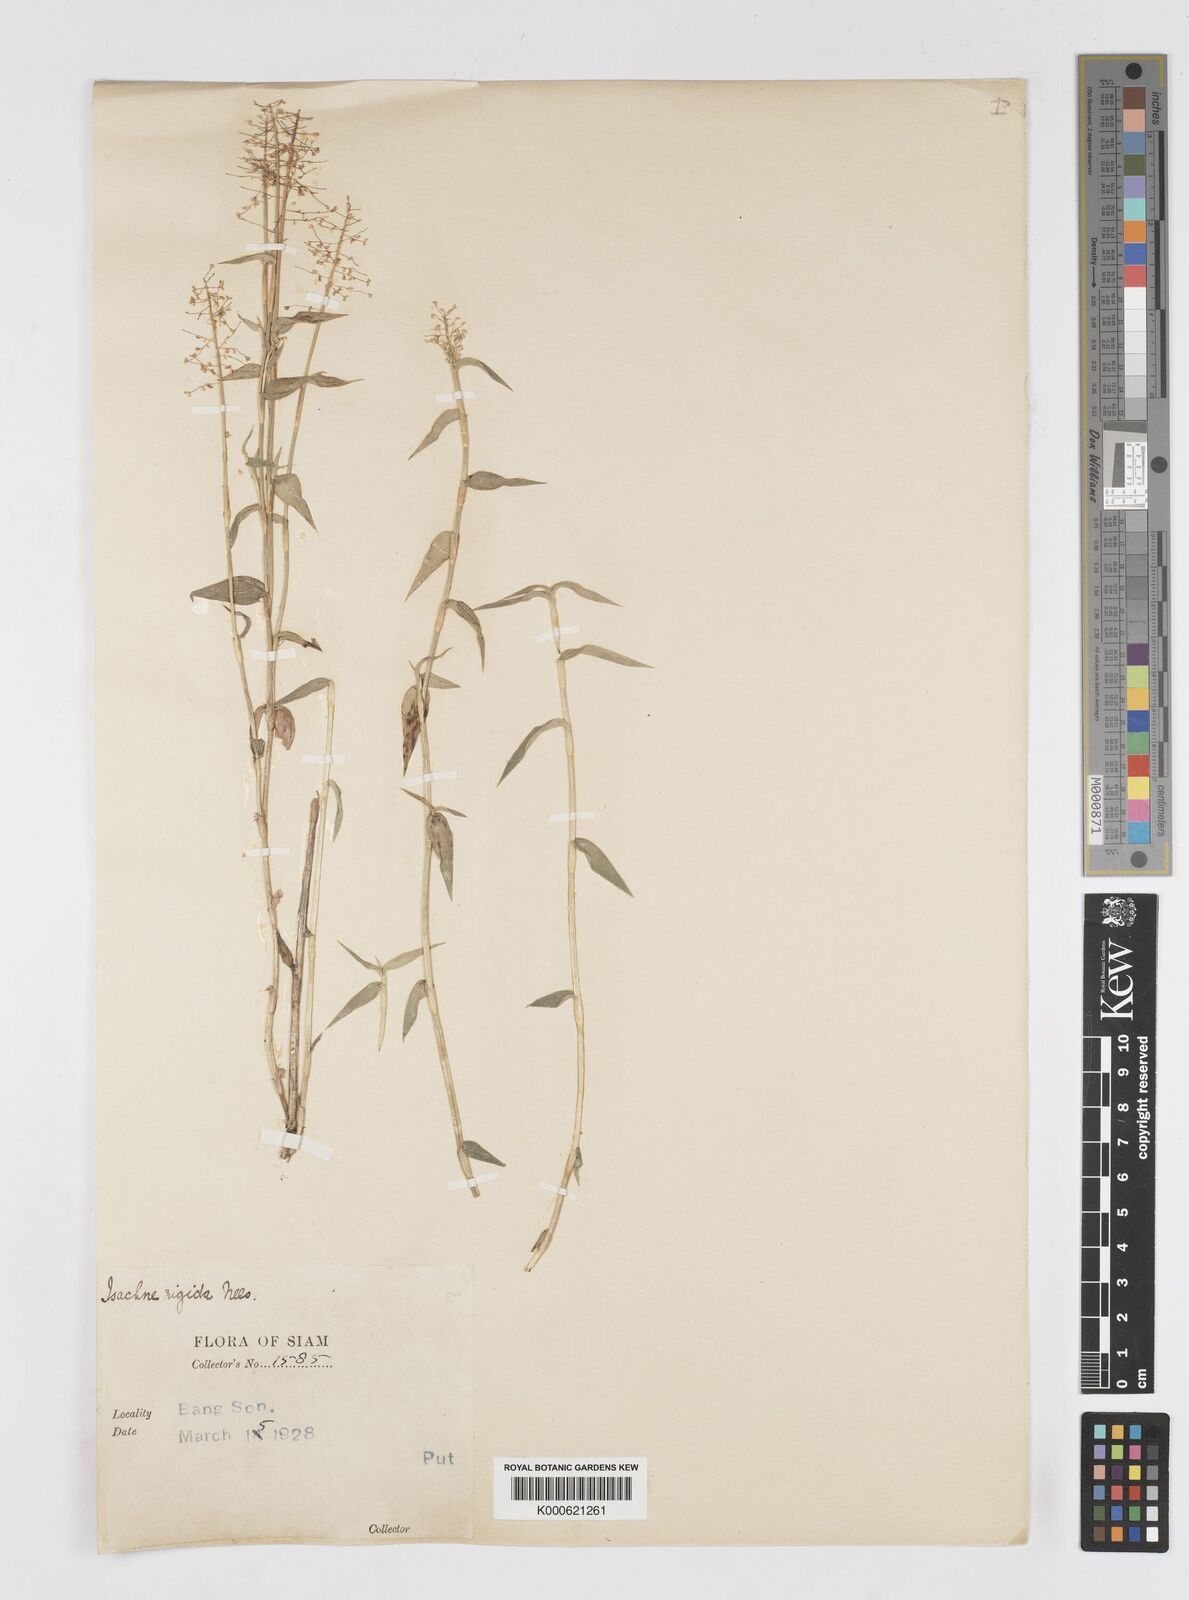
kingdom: Plantae
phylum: Tracheophyta
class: Liliopsida
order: Poales
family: Poaceae
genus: Isachne
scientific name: Isachne confusa
